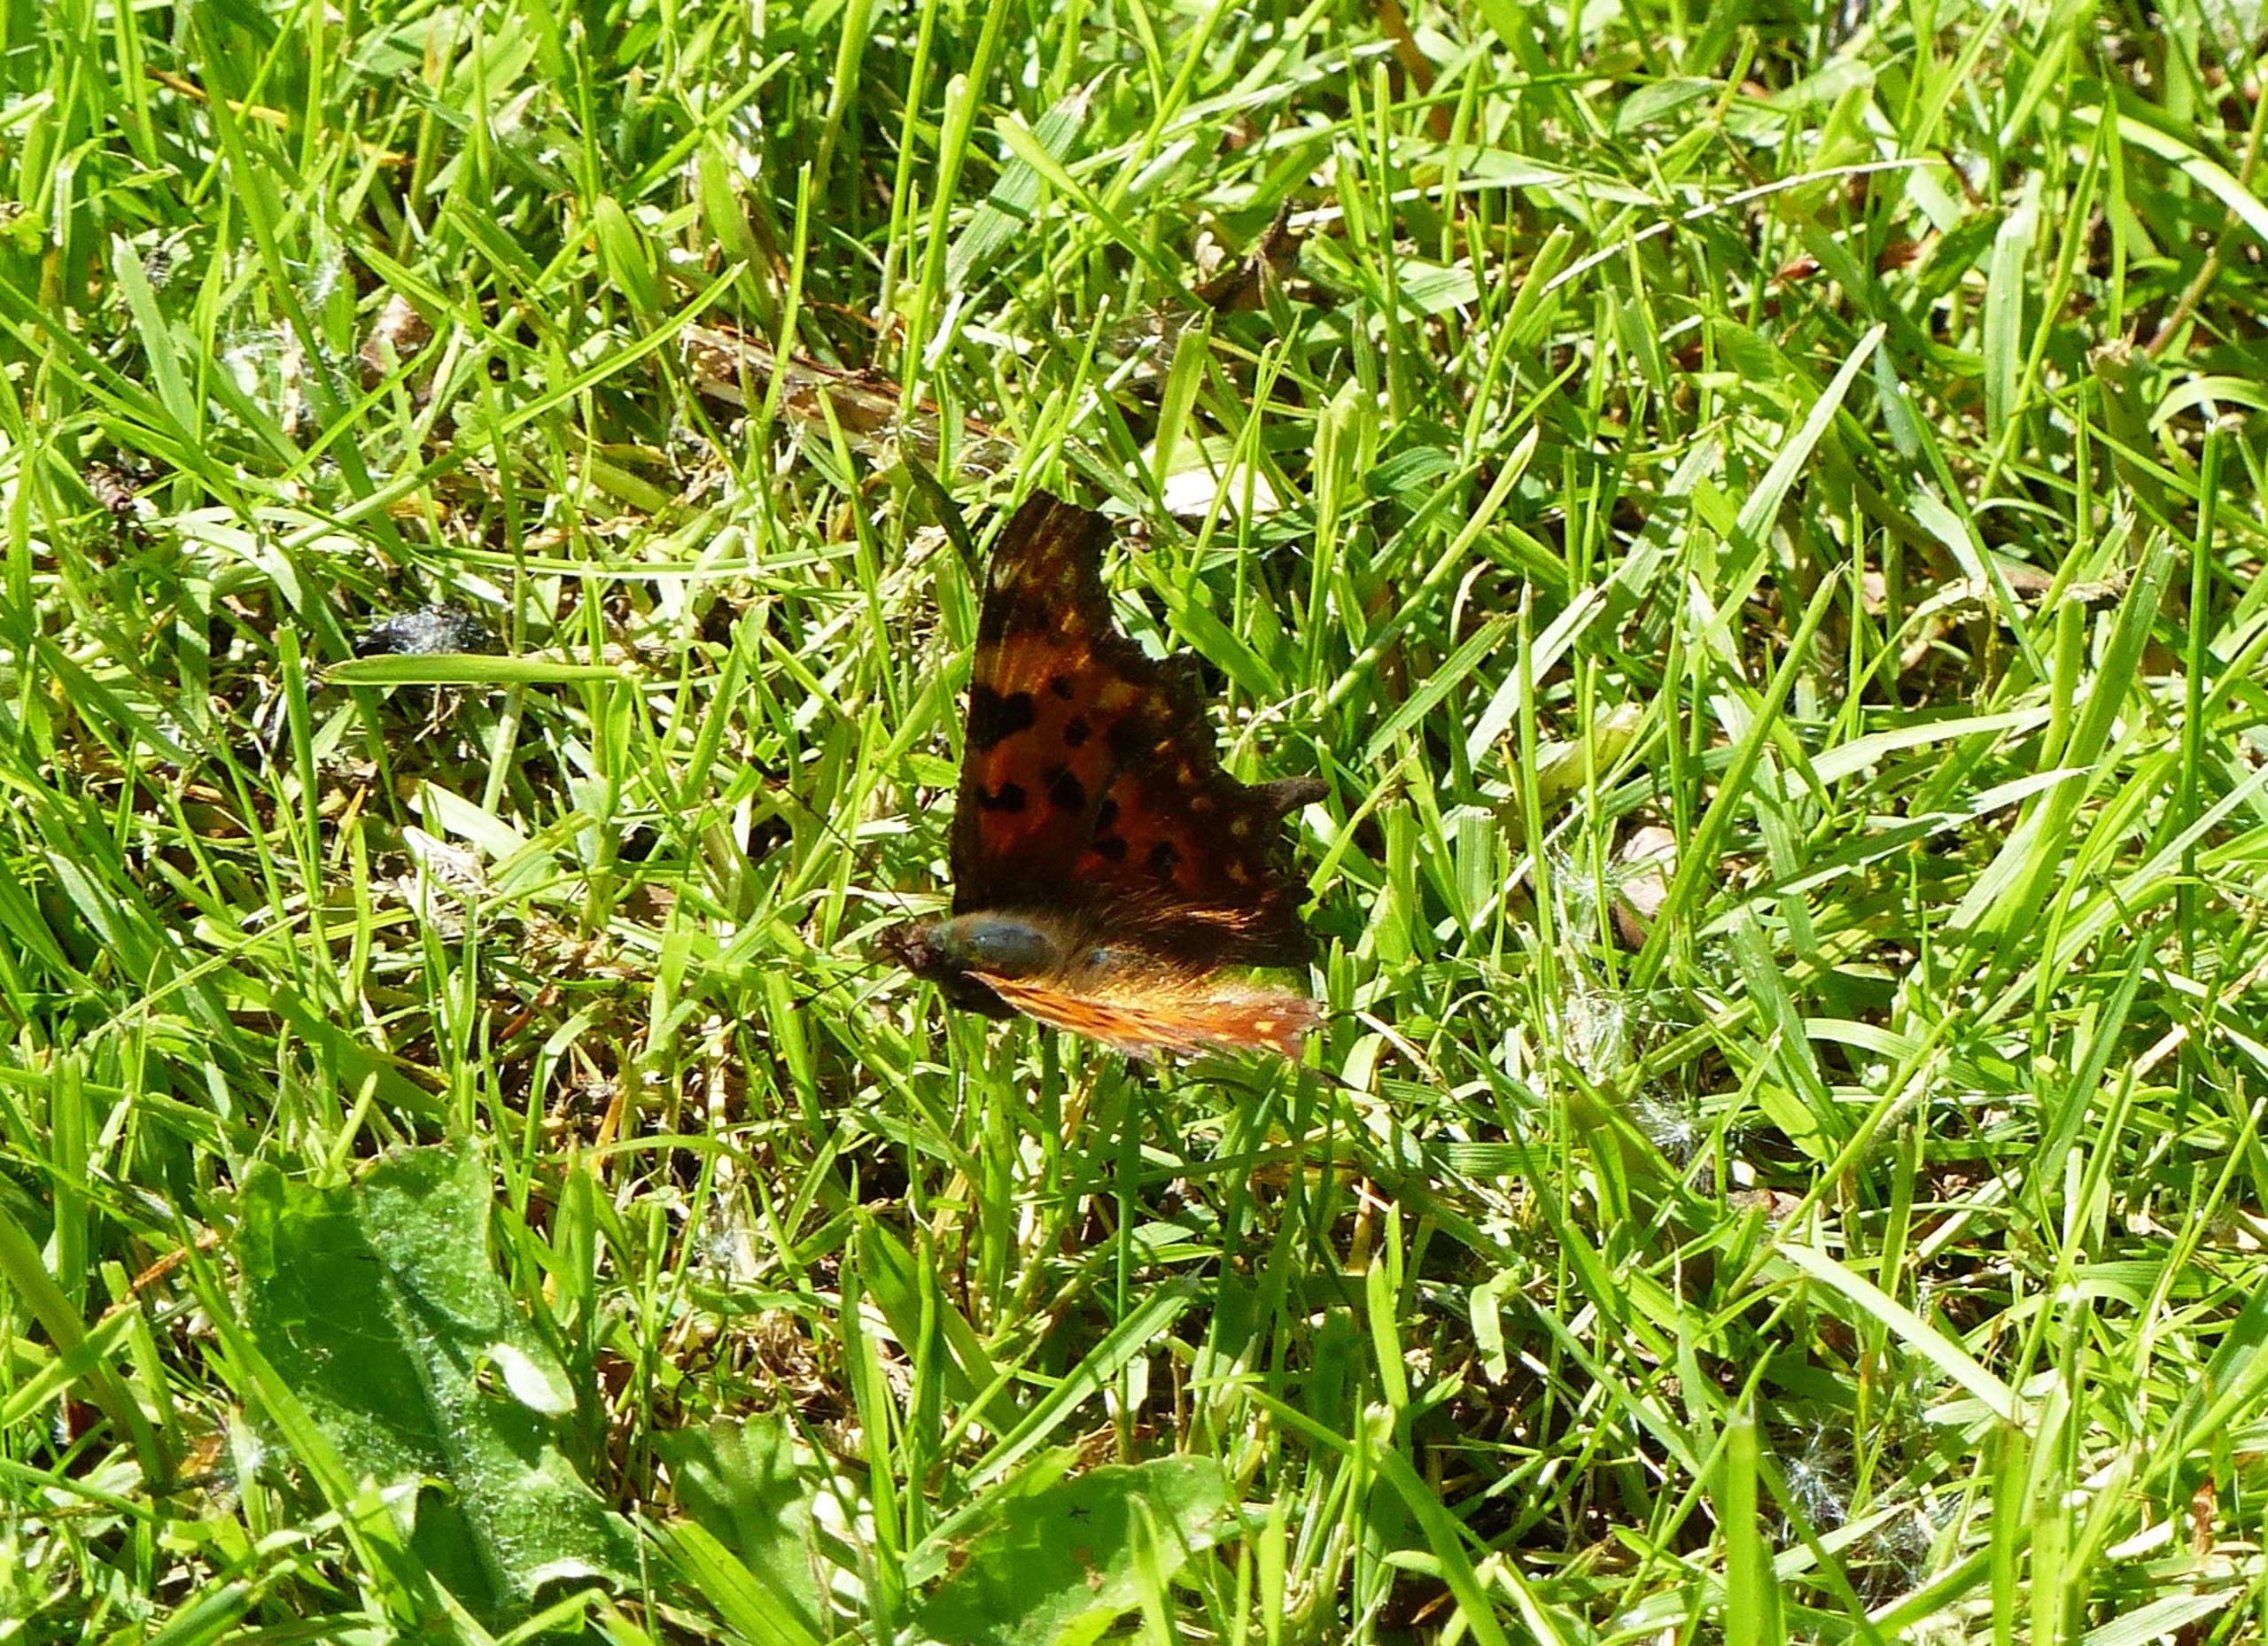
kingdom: Animalia
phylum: Arthropoda
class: Insecta
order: Lepidoptera
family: Nymphalidae
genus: Polygonia
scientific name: Polygonia c-album
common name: Det hvide C
